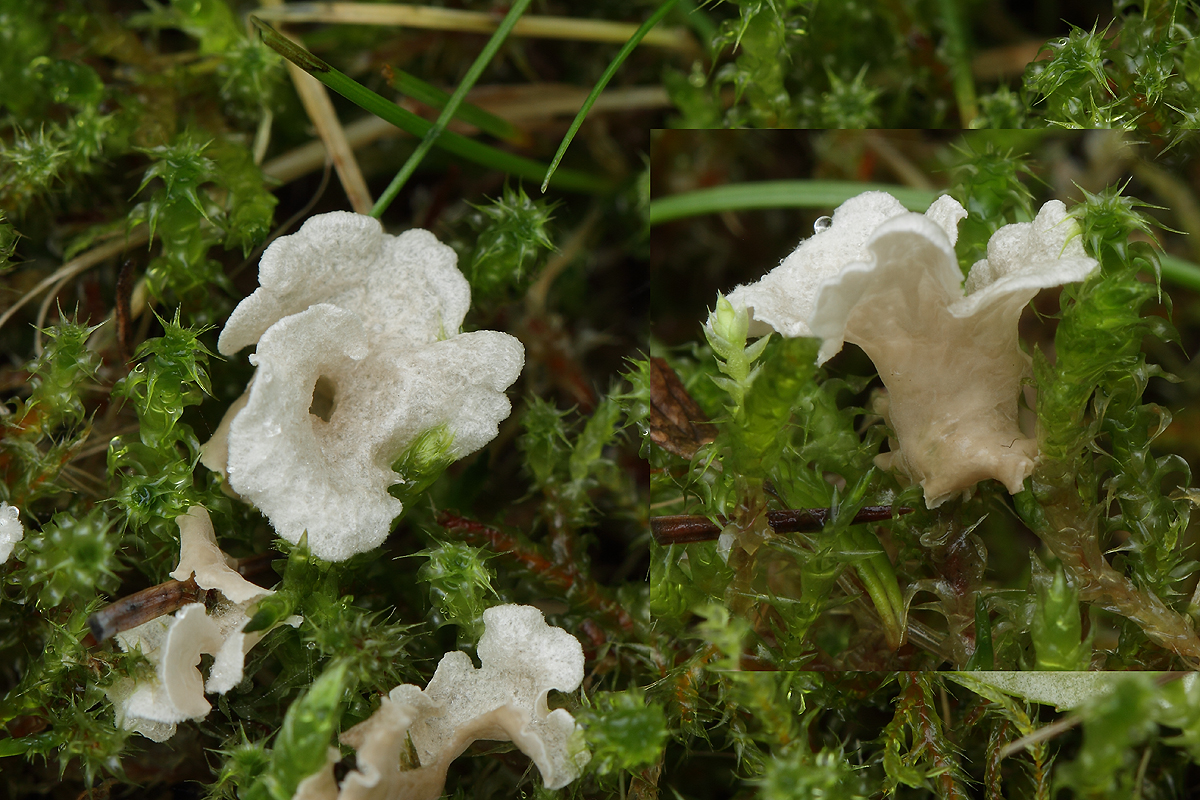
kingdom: Fungi
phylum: Basidiomycota
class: Agaricomycetes
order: Agaricales
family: Hygrophoraceae
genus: Arrhenia
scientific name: Arrhenia retiruga
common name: lille fontænehat
